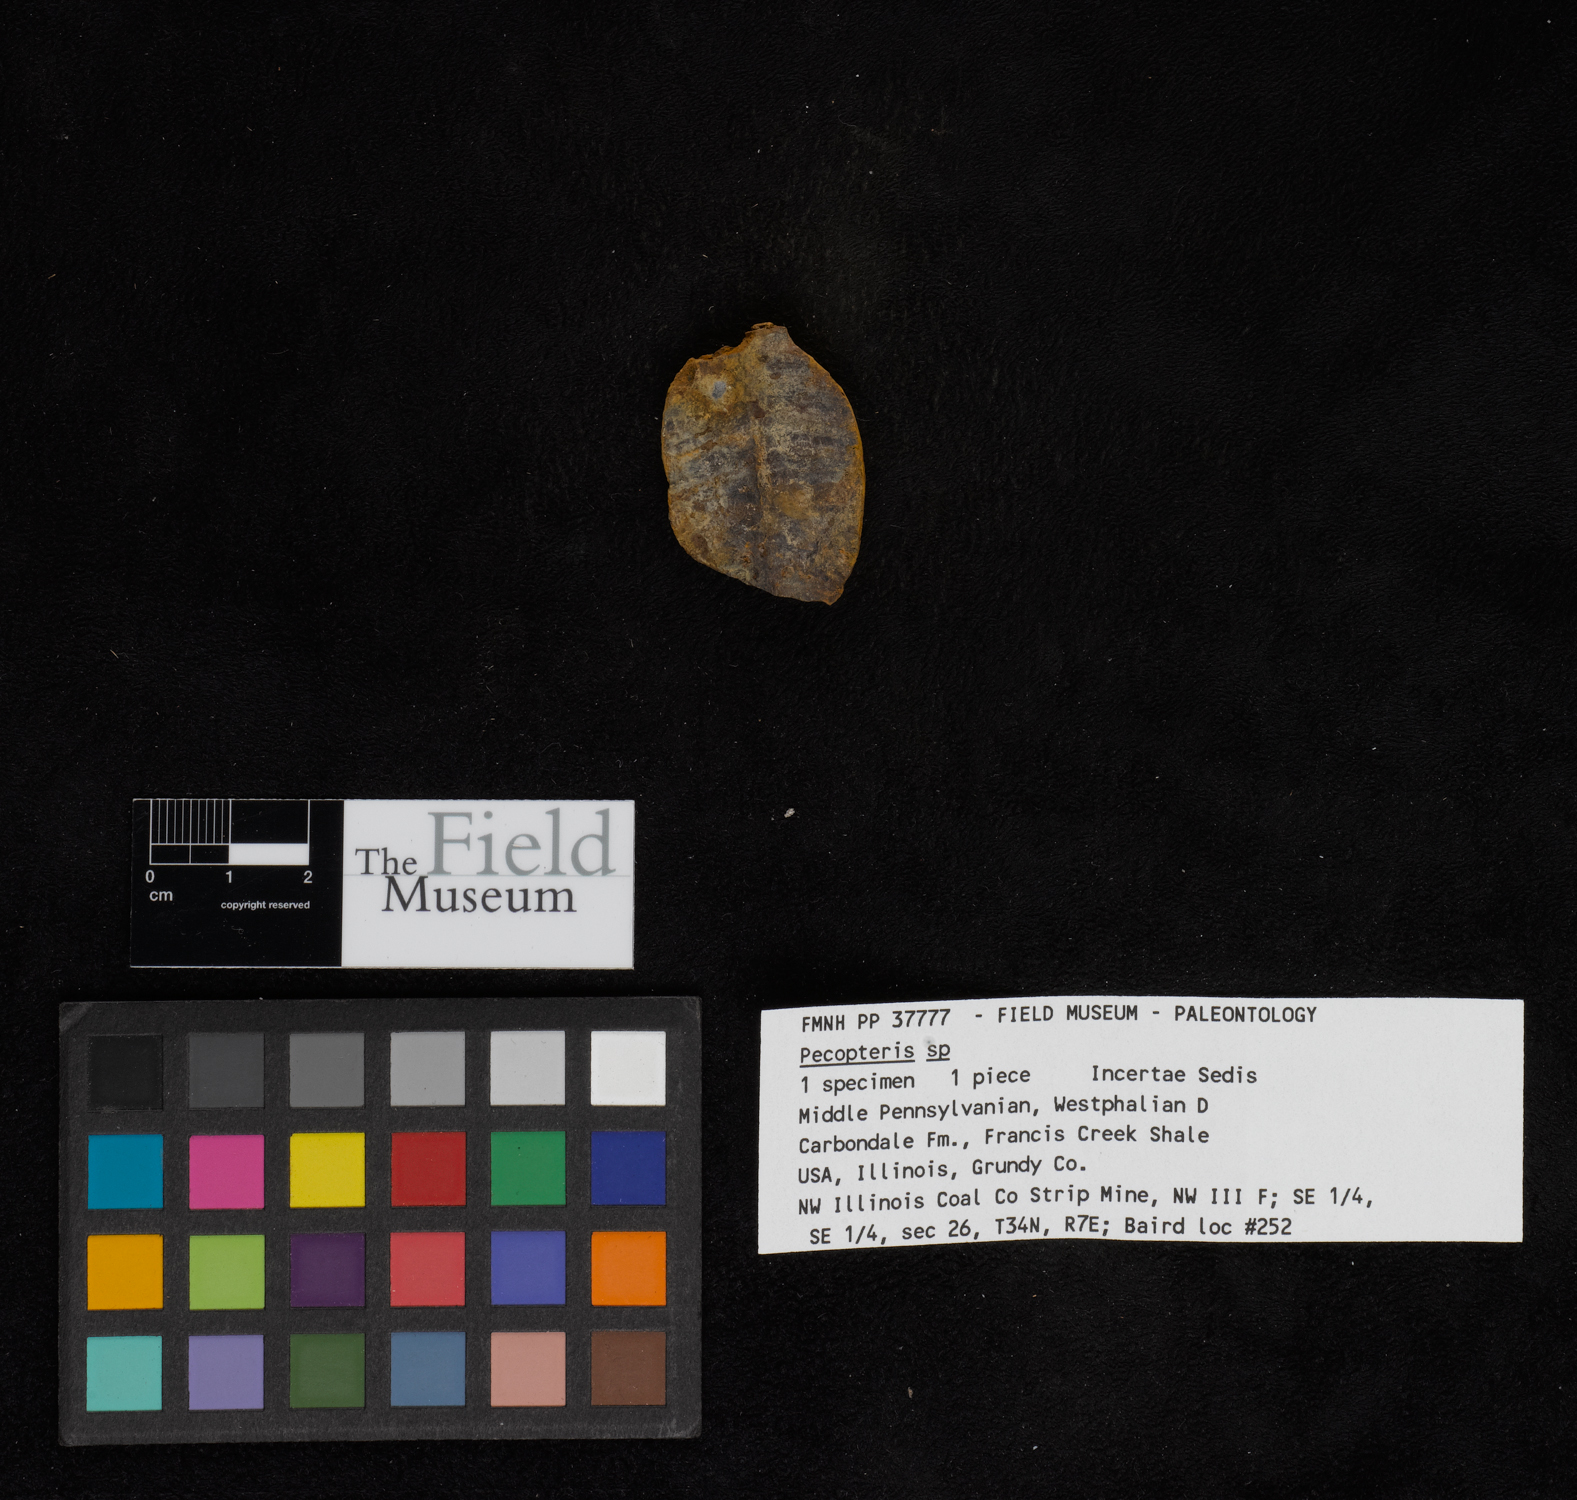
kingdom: Plantae
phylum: Tracheophyta
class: Polypodiopsida
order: Marattiales
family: Asterothecaceae
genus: Pecopteris
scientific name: Pecopteris
